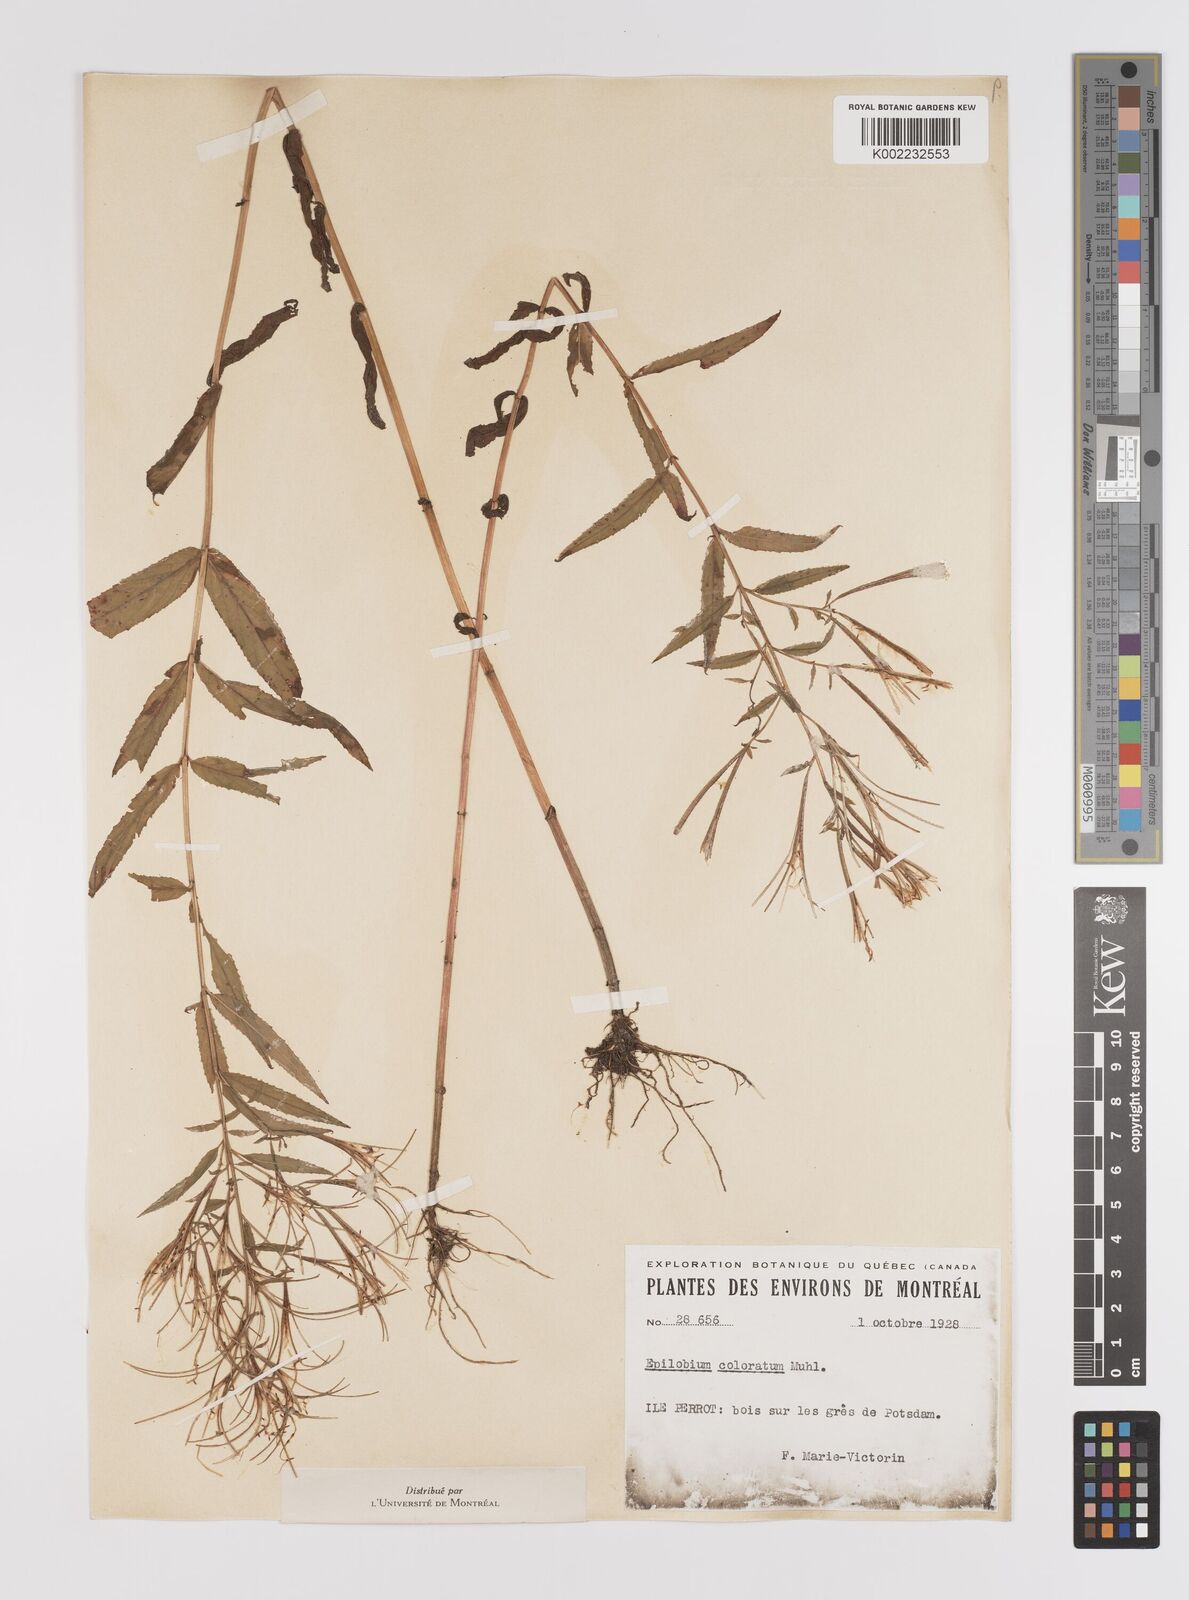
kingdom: Plantae
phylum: Tracheophyta
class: Magnoliopsida
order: Myrtales
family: Onagraceae
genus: Epilobium
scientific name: Epilobium coloratum
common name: Bronze willowherb
